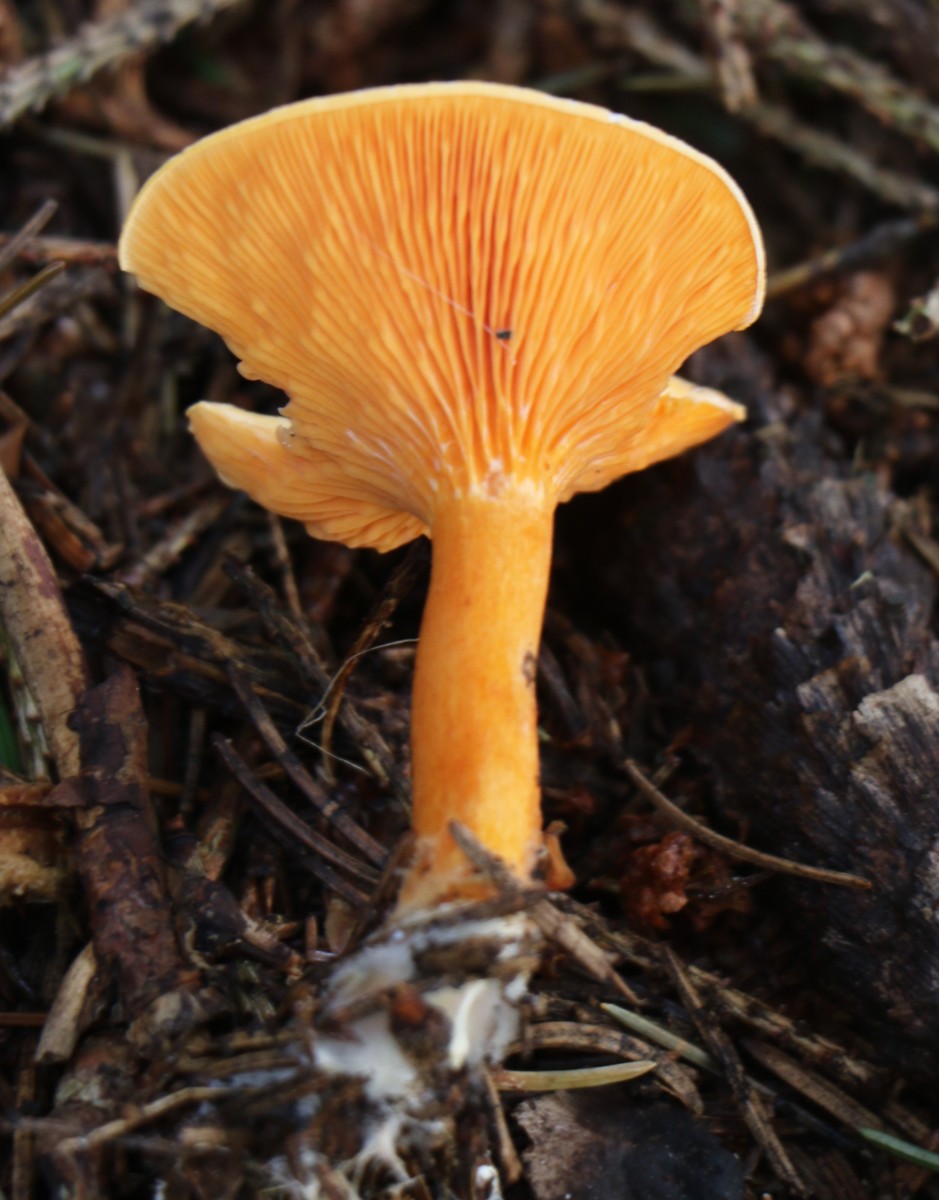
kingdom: Fungi
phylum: Basidiomycota
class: Agaricomycetes
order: Boletales
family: Hygrophoropsidaceae
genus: Hygrophoropsis
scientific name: Hygrophoropsis aurantiaca
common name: almindelig orangekantarel
